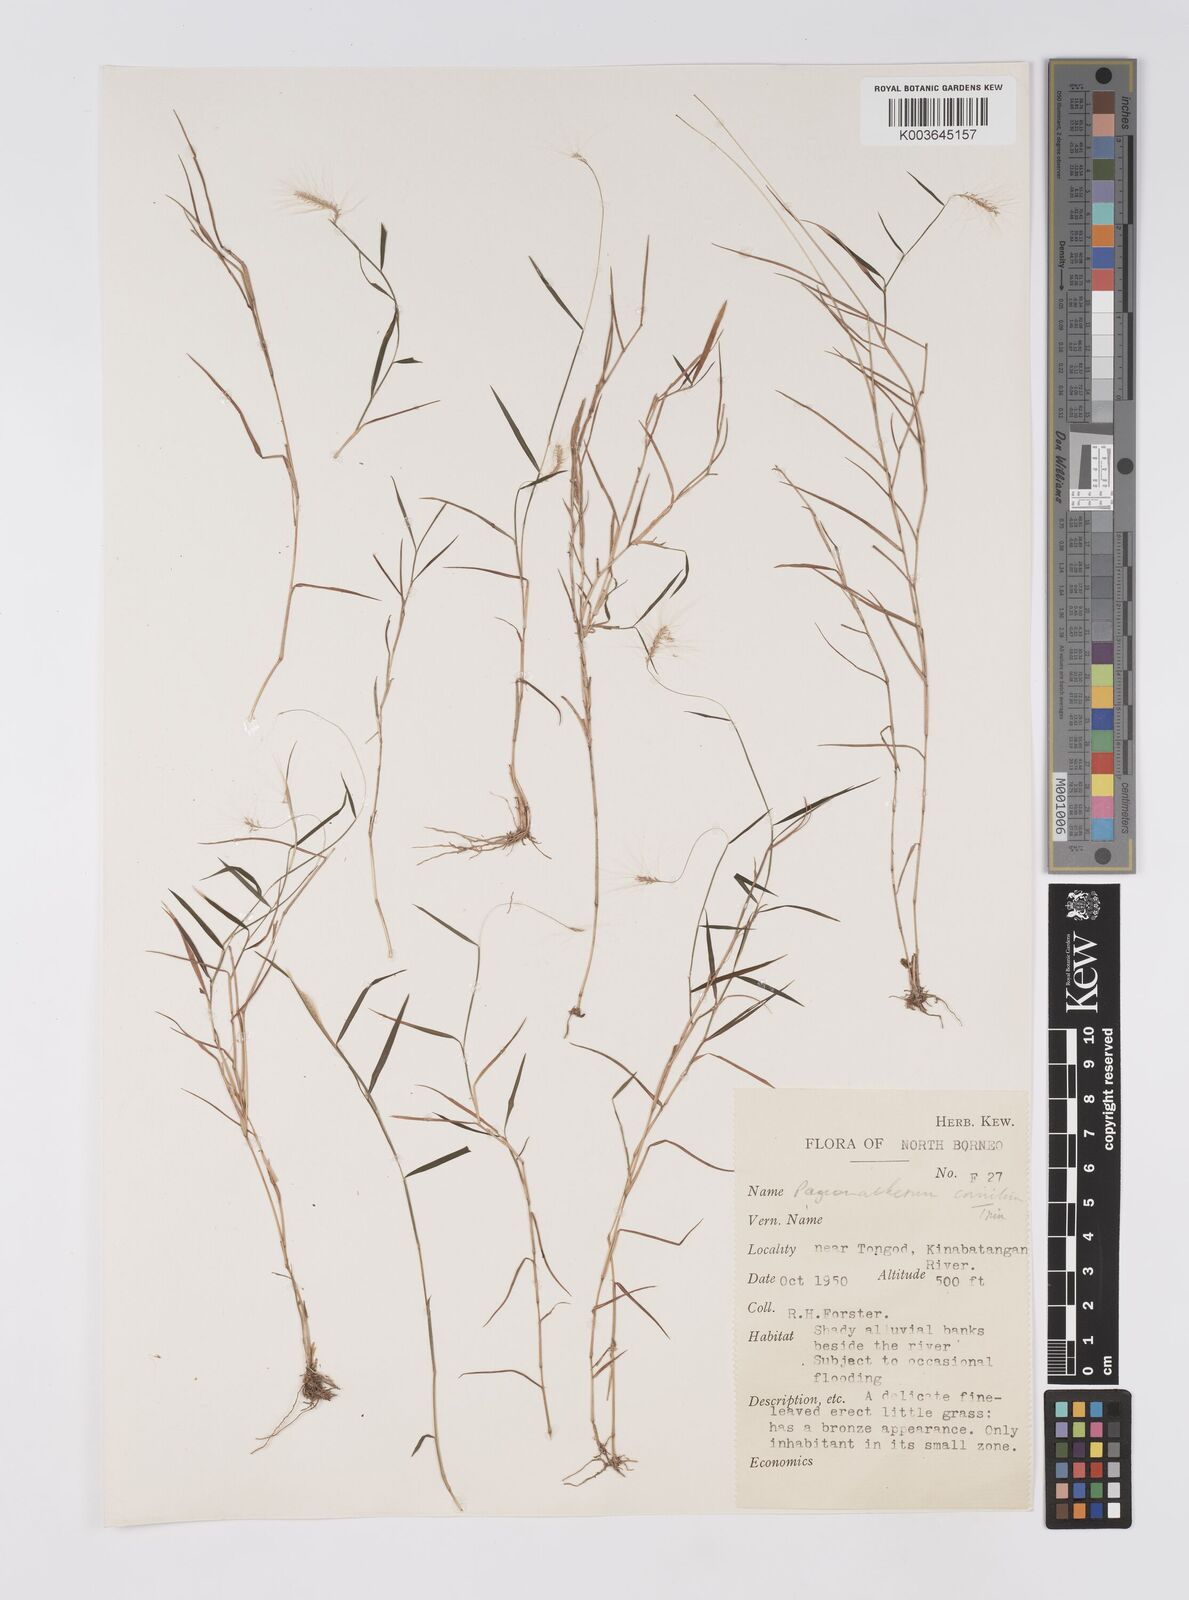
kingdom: Plantae
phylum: Tracheophyta
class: Liliopsida
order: Poales
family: Poaceae
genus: Pogonatherum
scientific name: Pogonatherum crinitum
